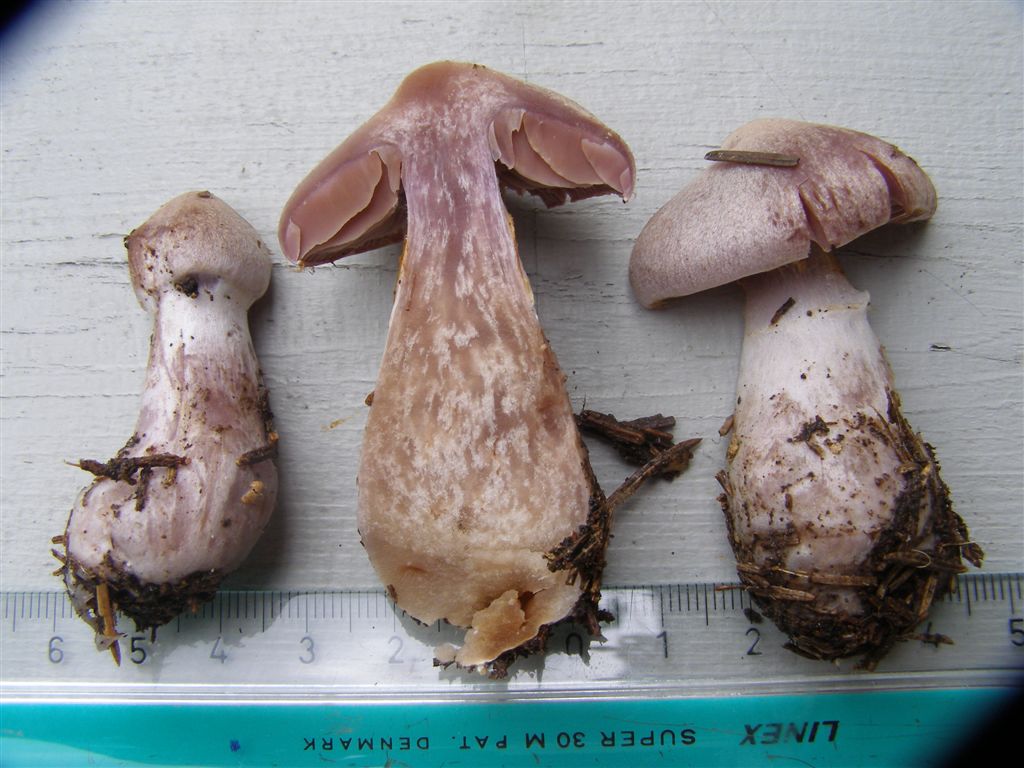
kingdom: Fungi
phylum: Basidiomycota
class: Agaricomycetes
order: Agaricales
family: Cortinariaceae
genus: Cortinarius
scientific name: Cortinarius malachius
